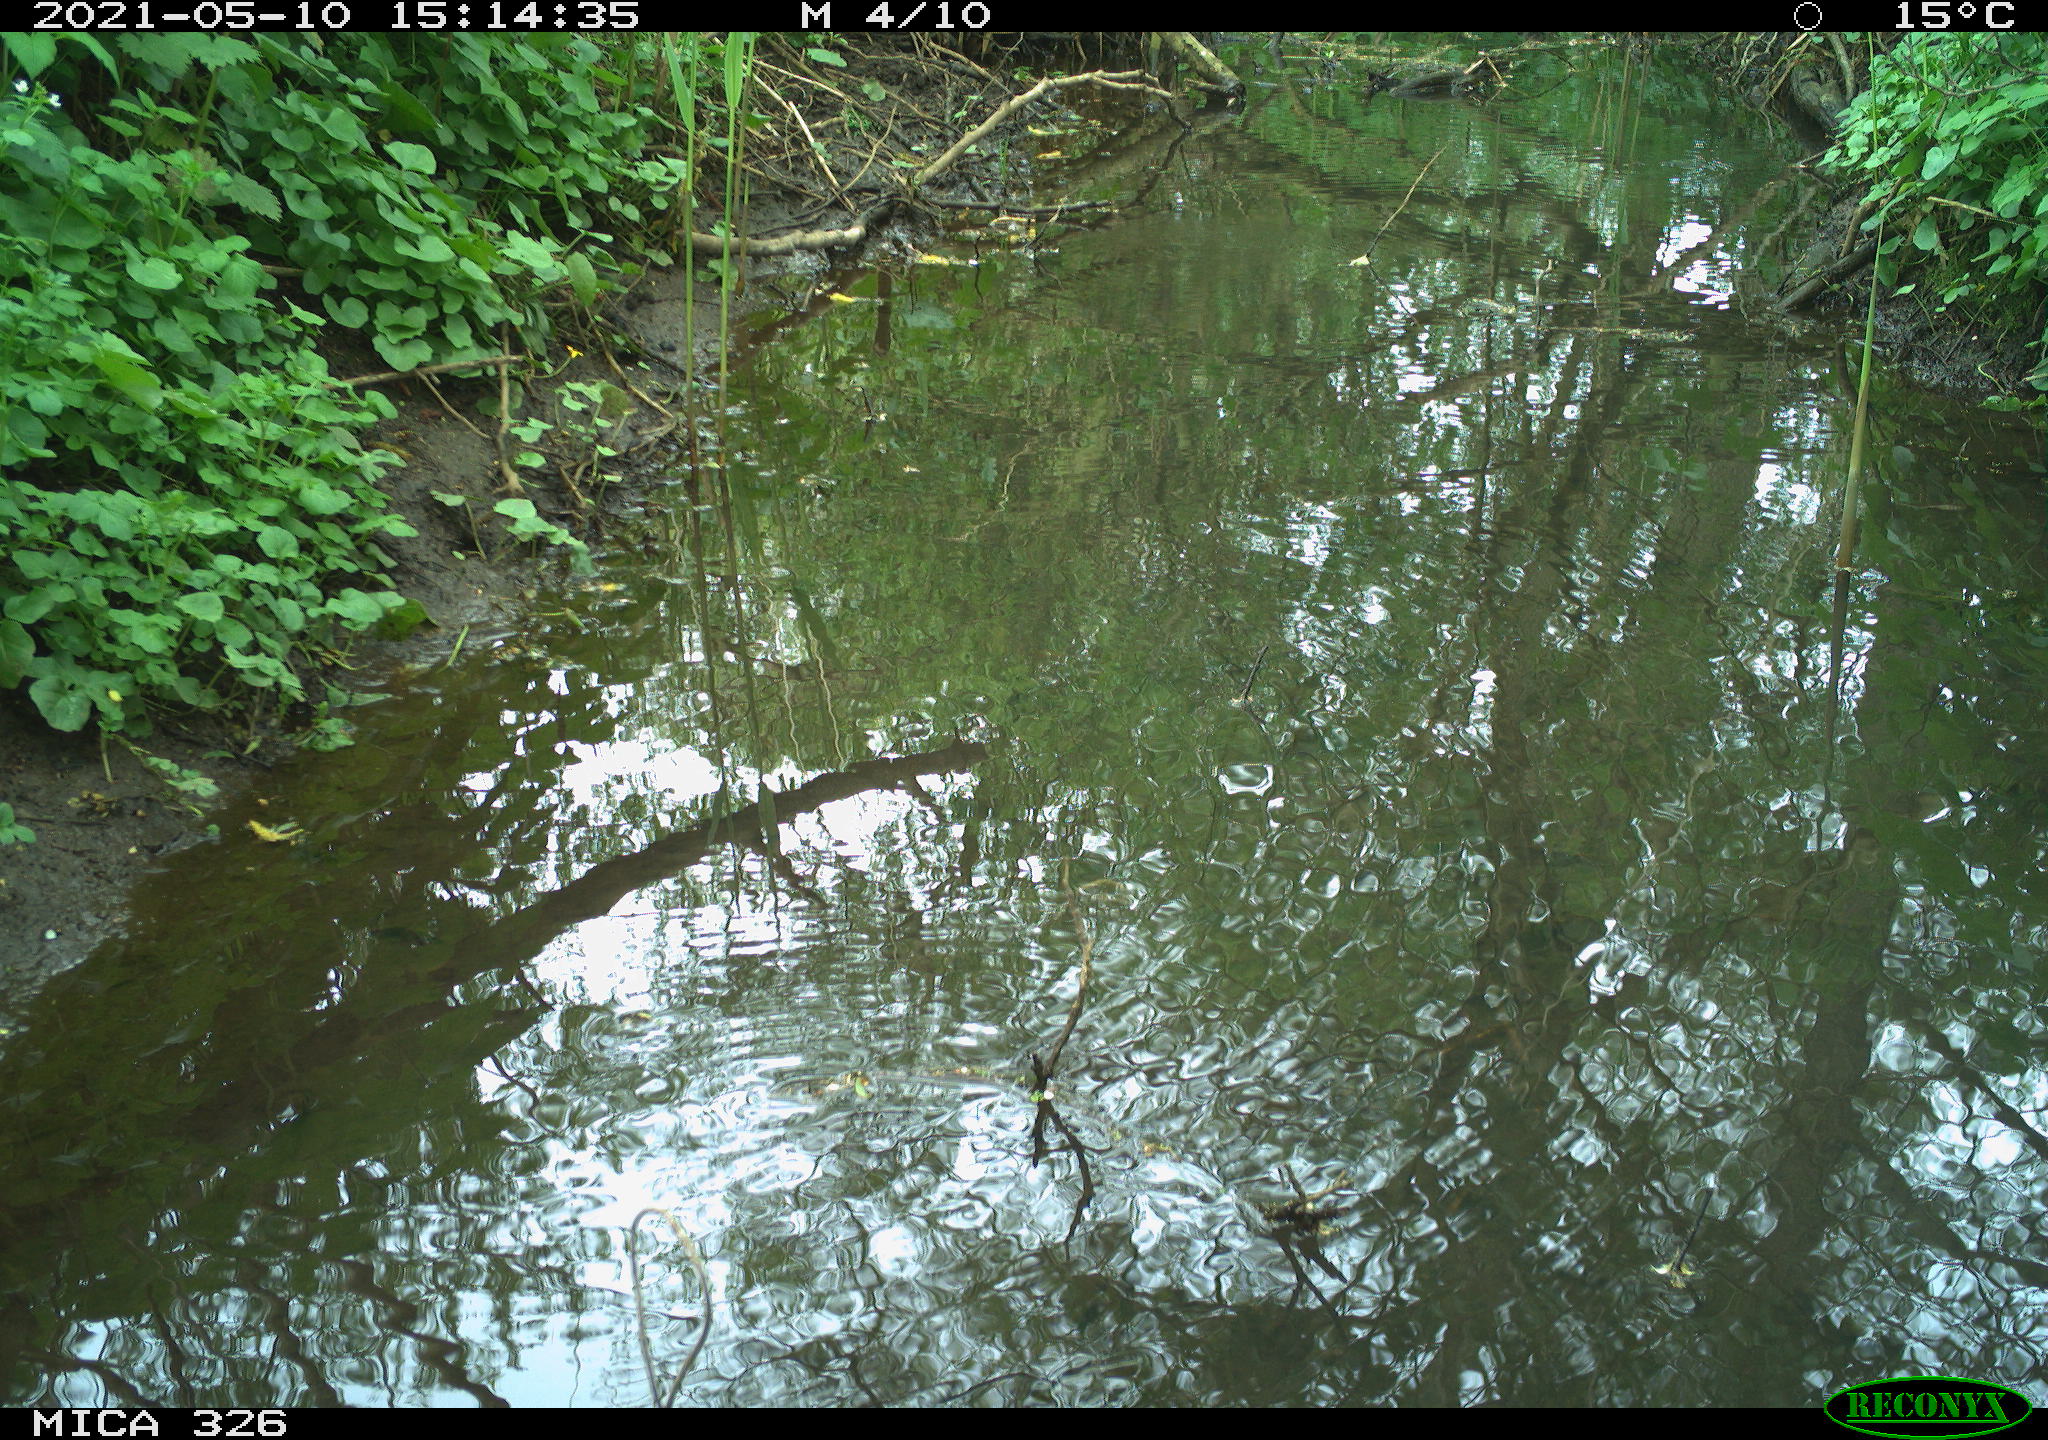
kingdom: Animalia
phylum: Chordata
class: Aves
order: Passeriformes
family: Turdidae
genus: Turdus
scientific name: Turdus philomelos
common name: Song thrush
